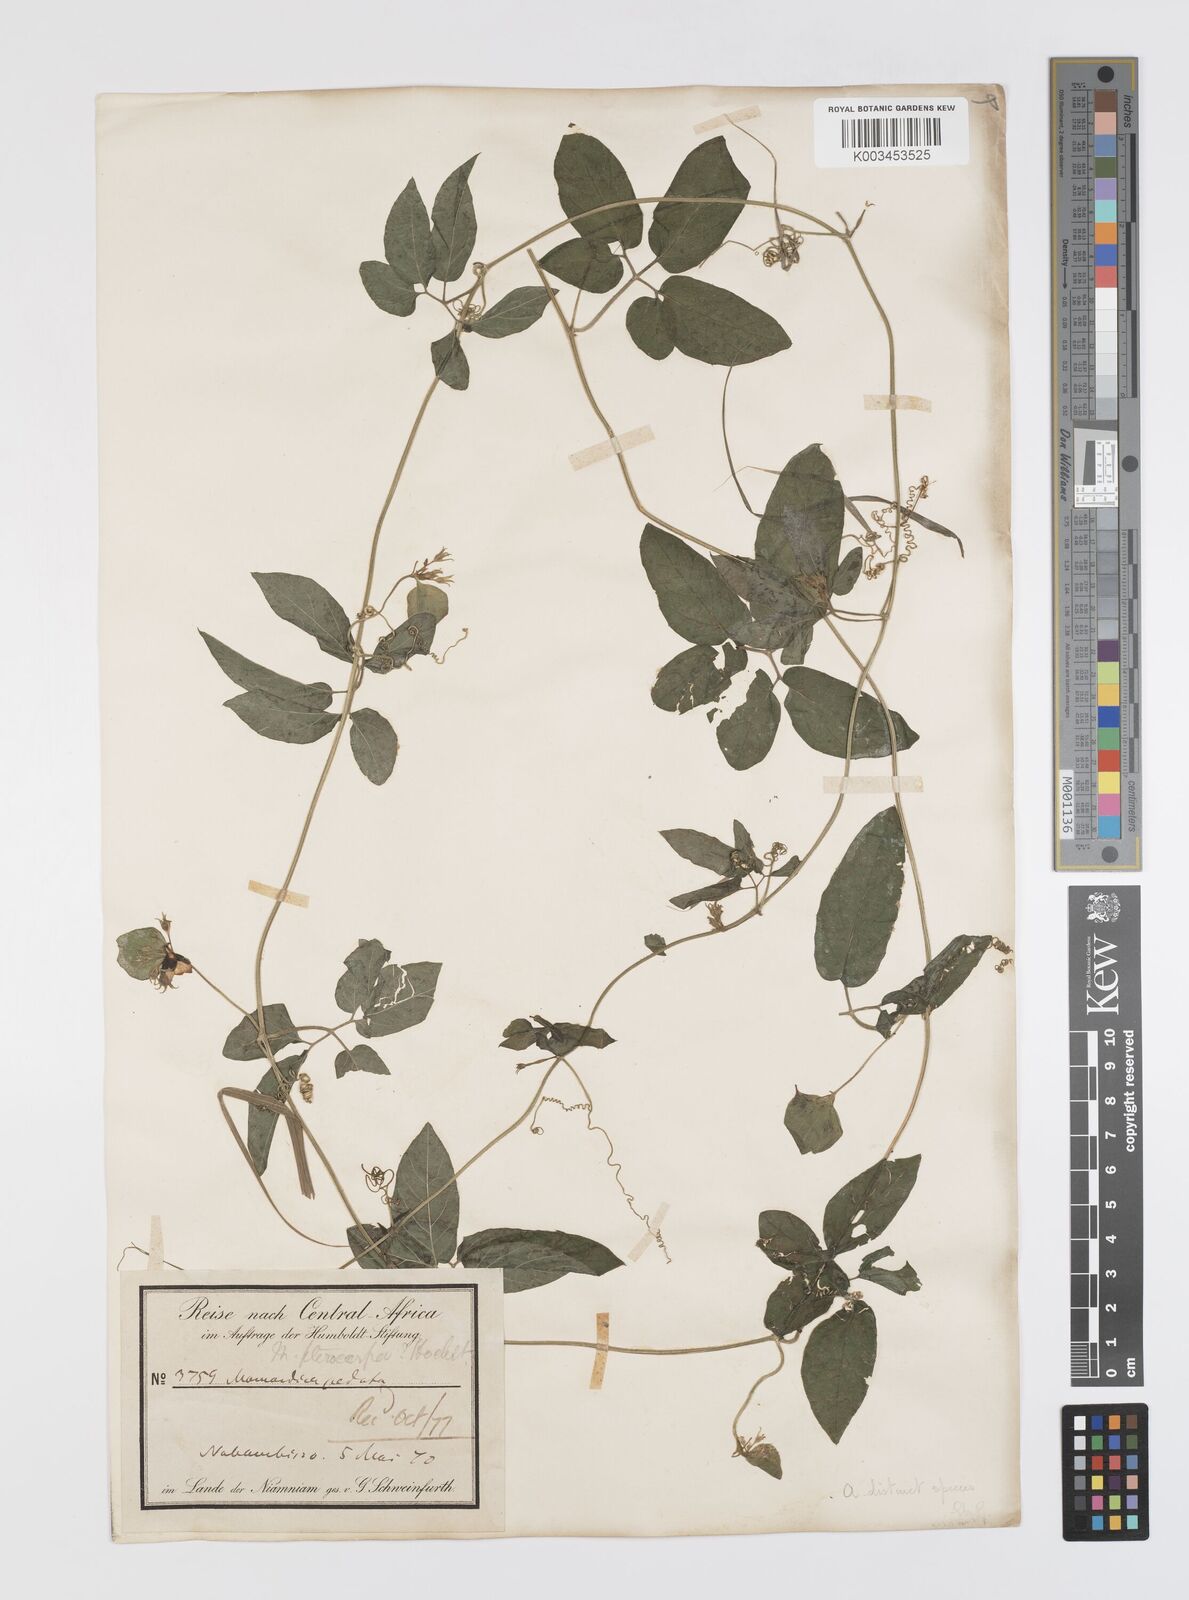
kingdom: Plantae
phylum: Tracheophyta
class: Magnoliopsida
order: Cucurbitales
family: Cucurbitaceae
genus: Momordica
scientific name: Momordica pterocarpa
